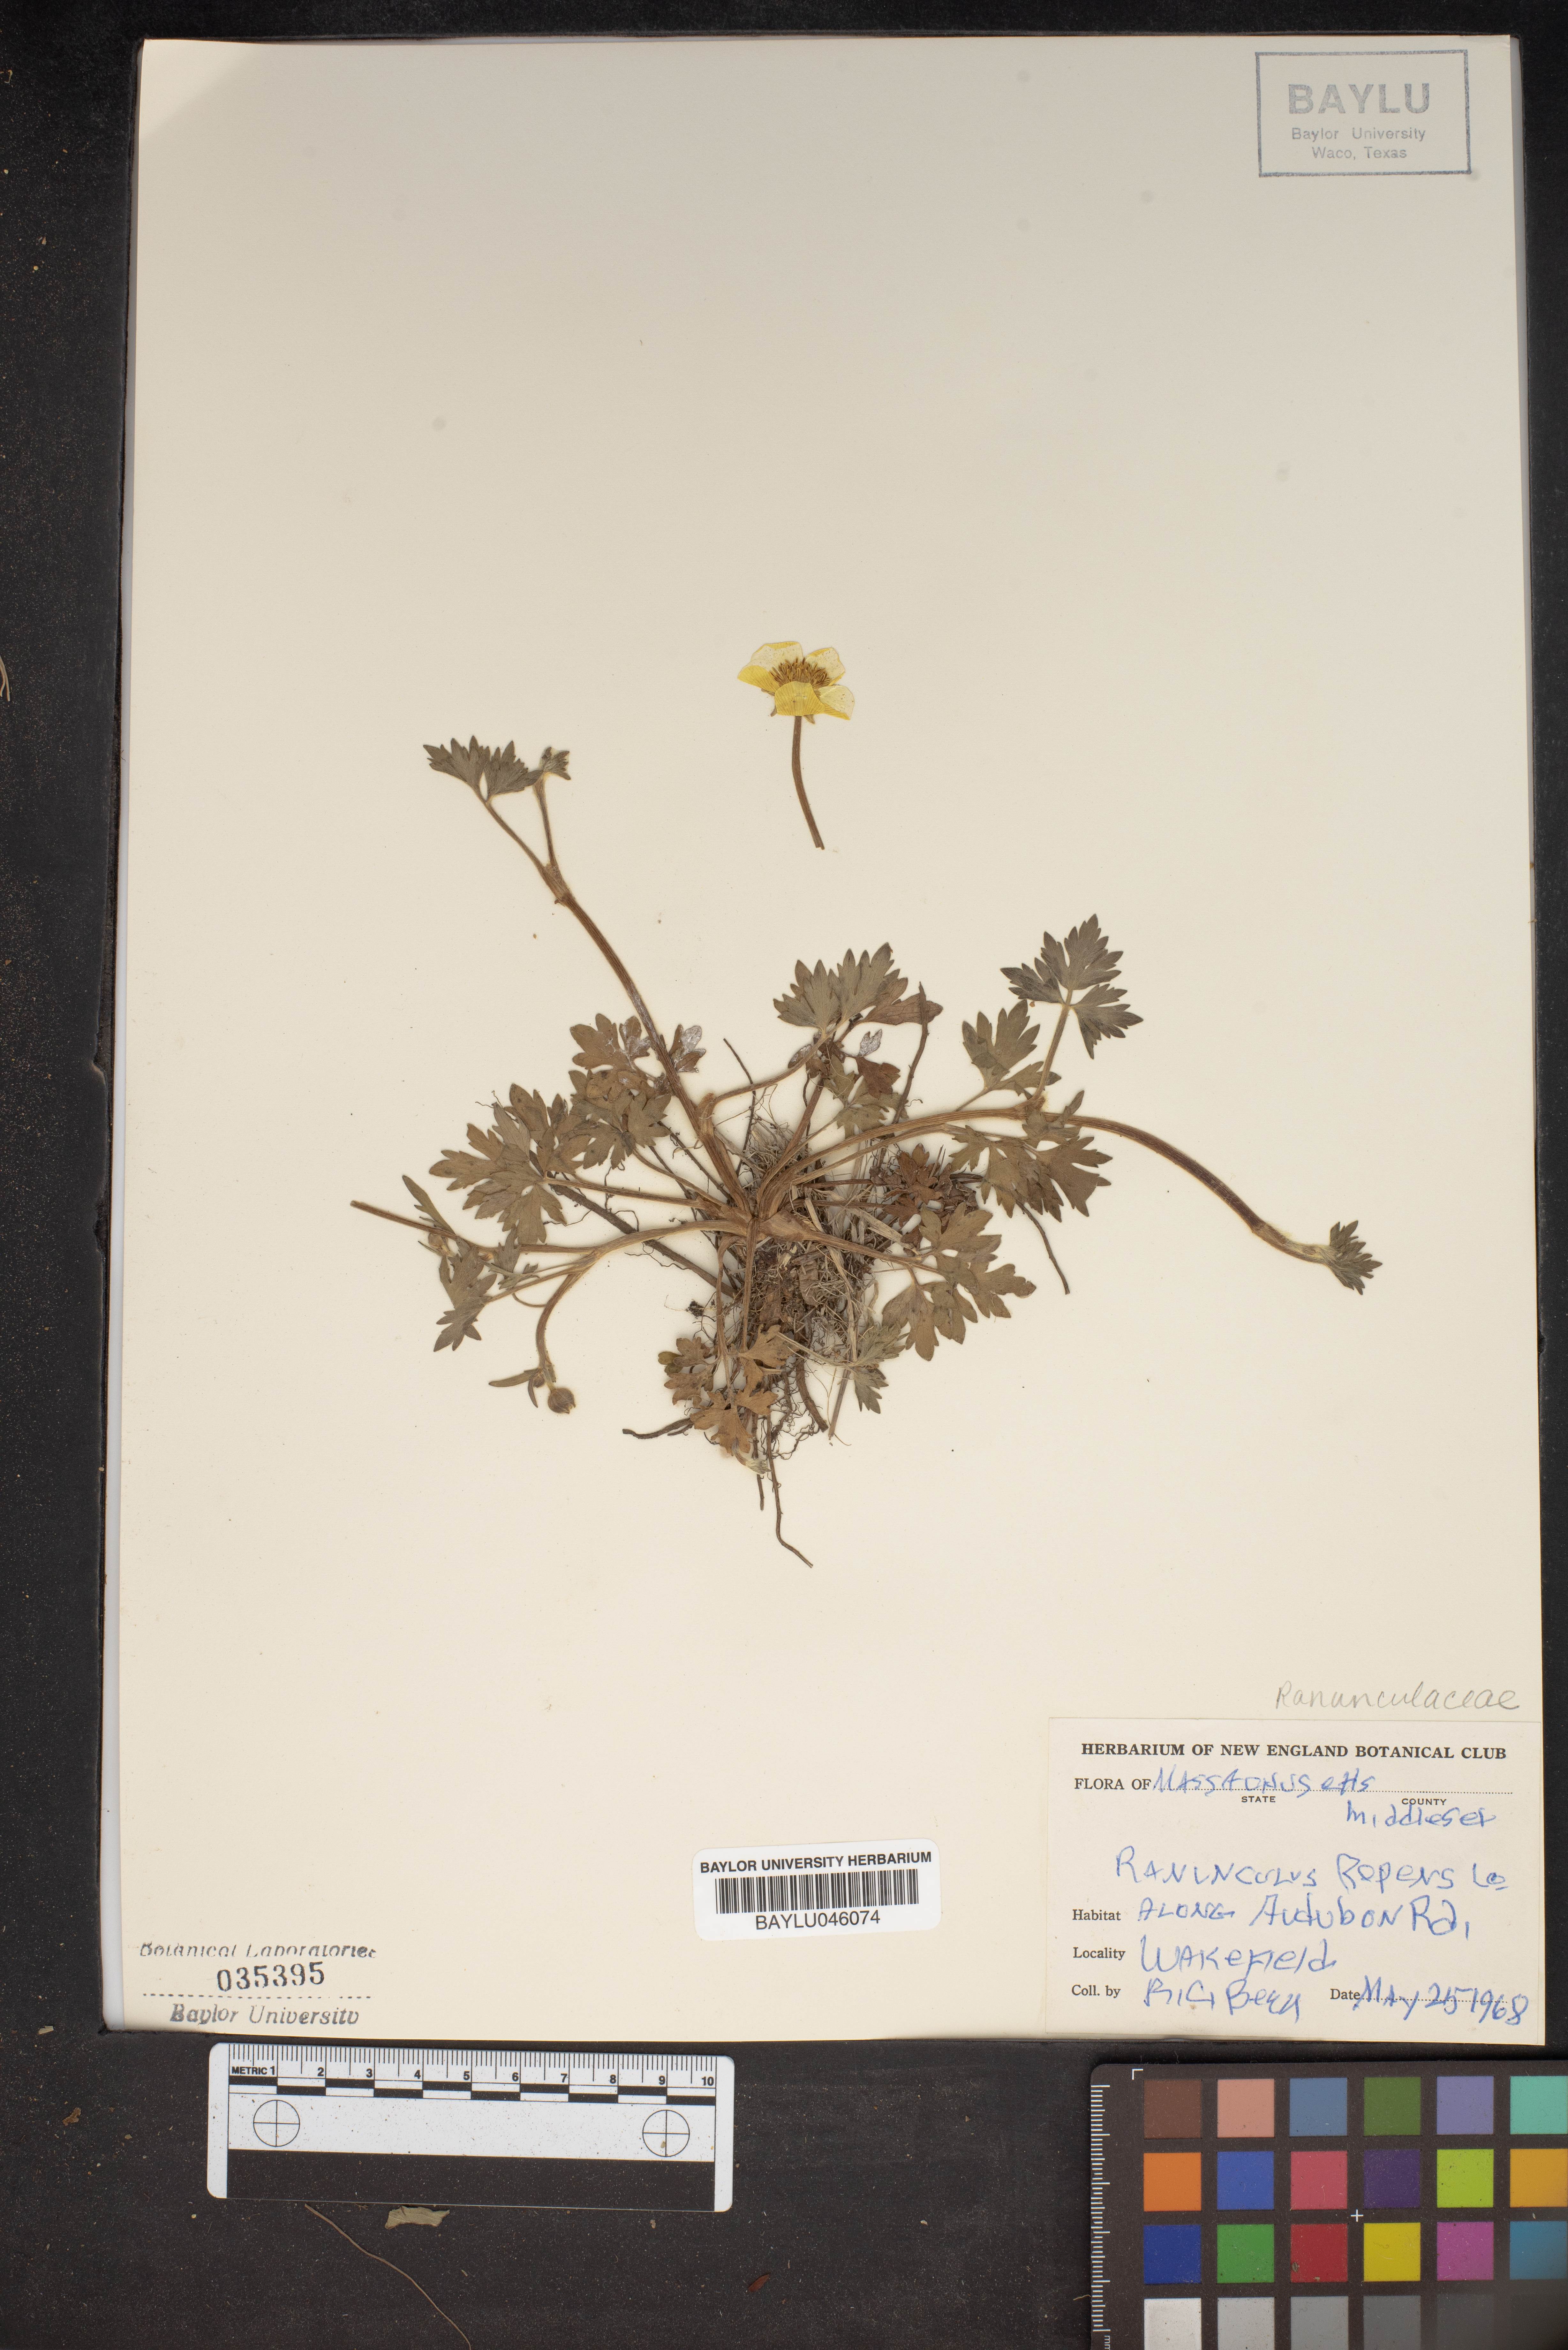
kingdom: Plantae
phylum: Tracheophyta
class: Magnoliopsida
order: Ranunculales
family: Ranunculaceae
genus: Ranunculus
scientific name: Ranunculus repens
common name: Creeping buttercup
